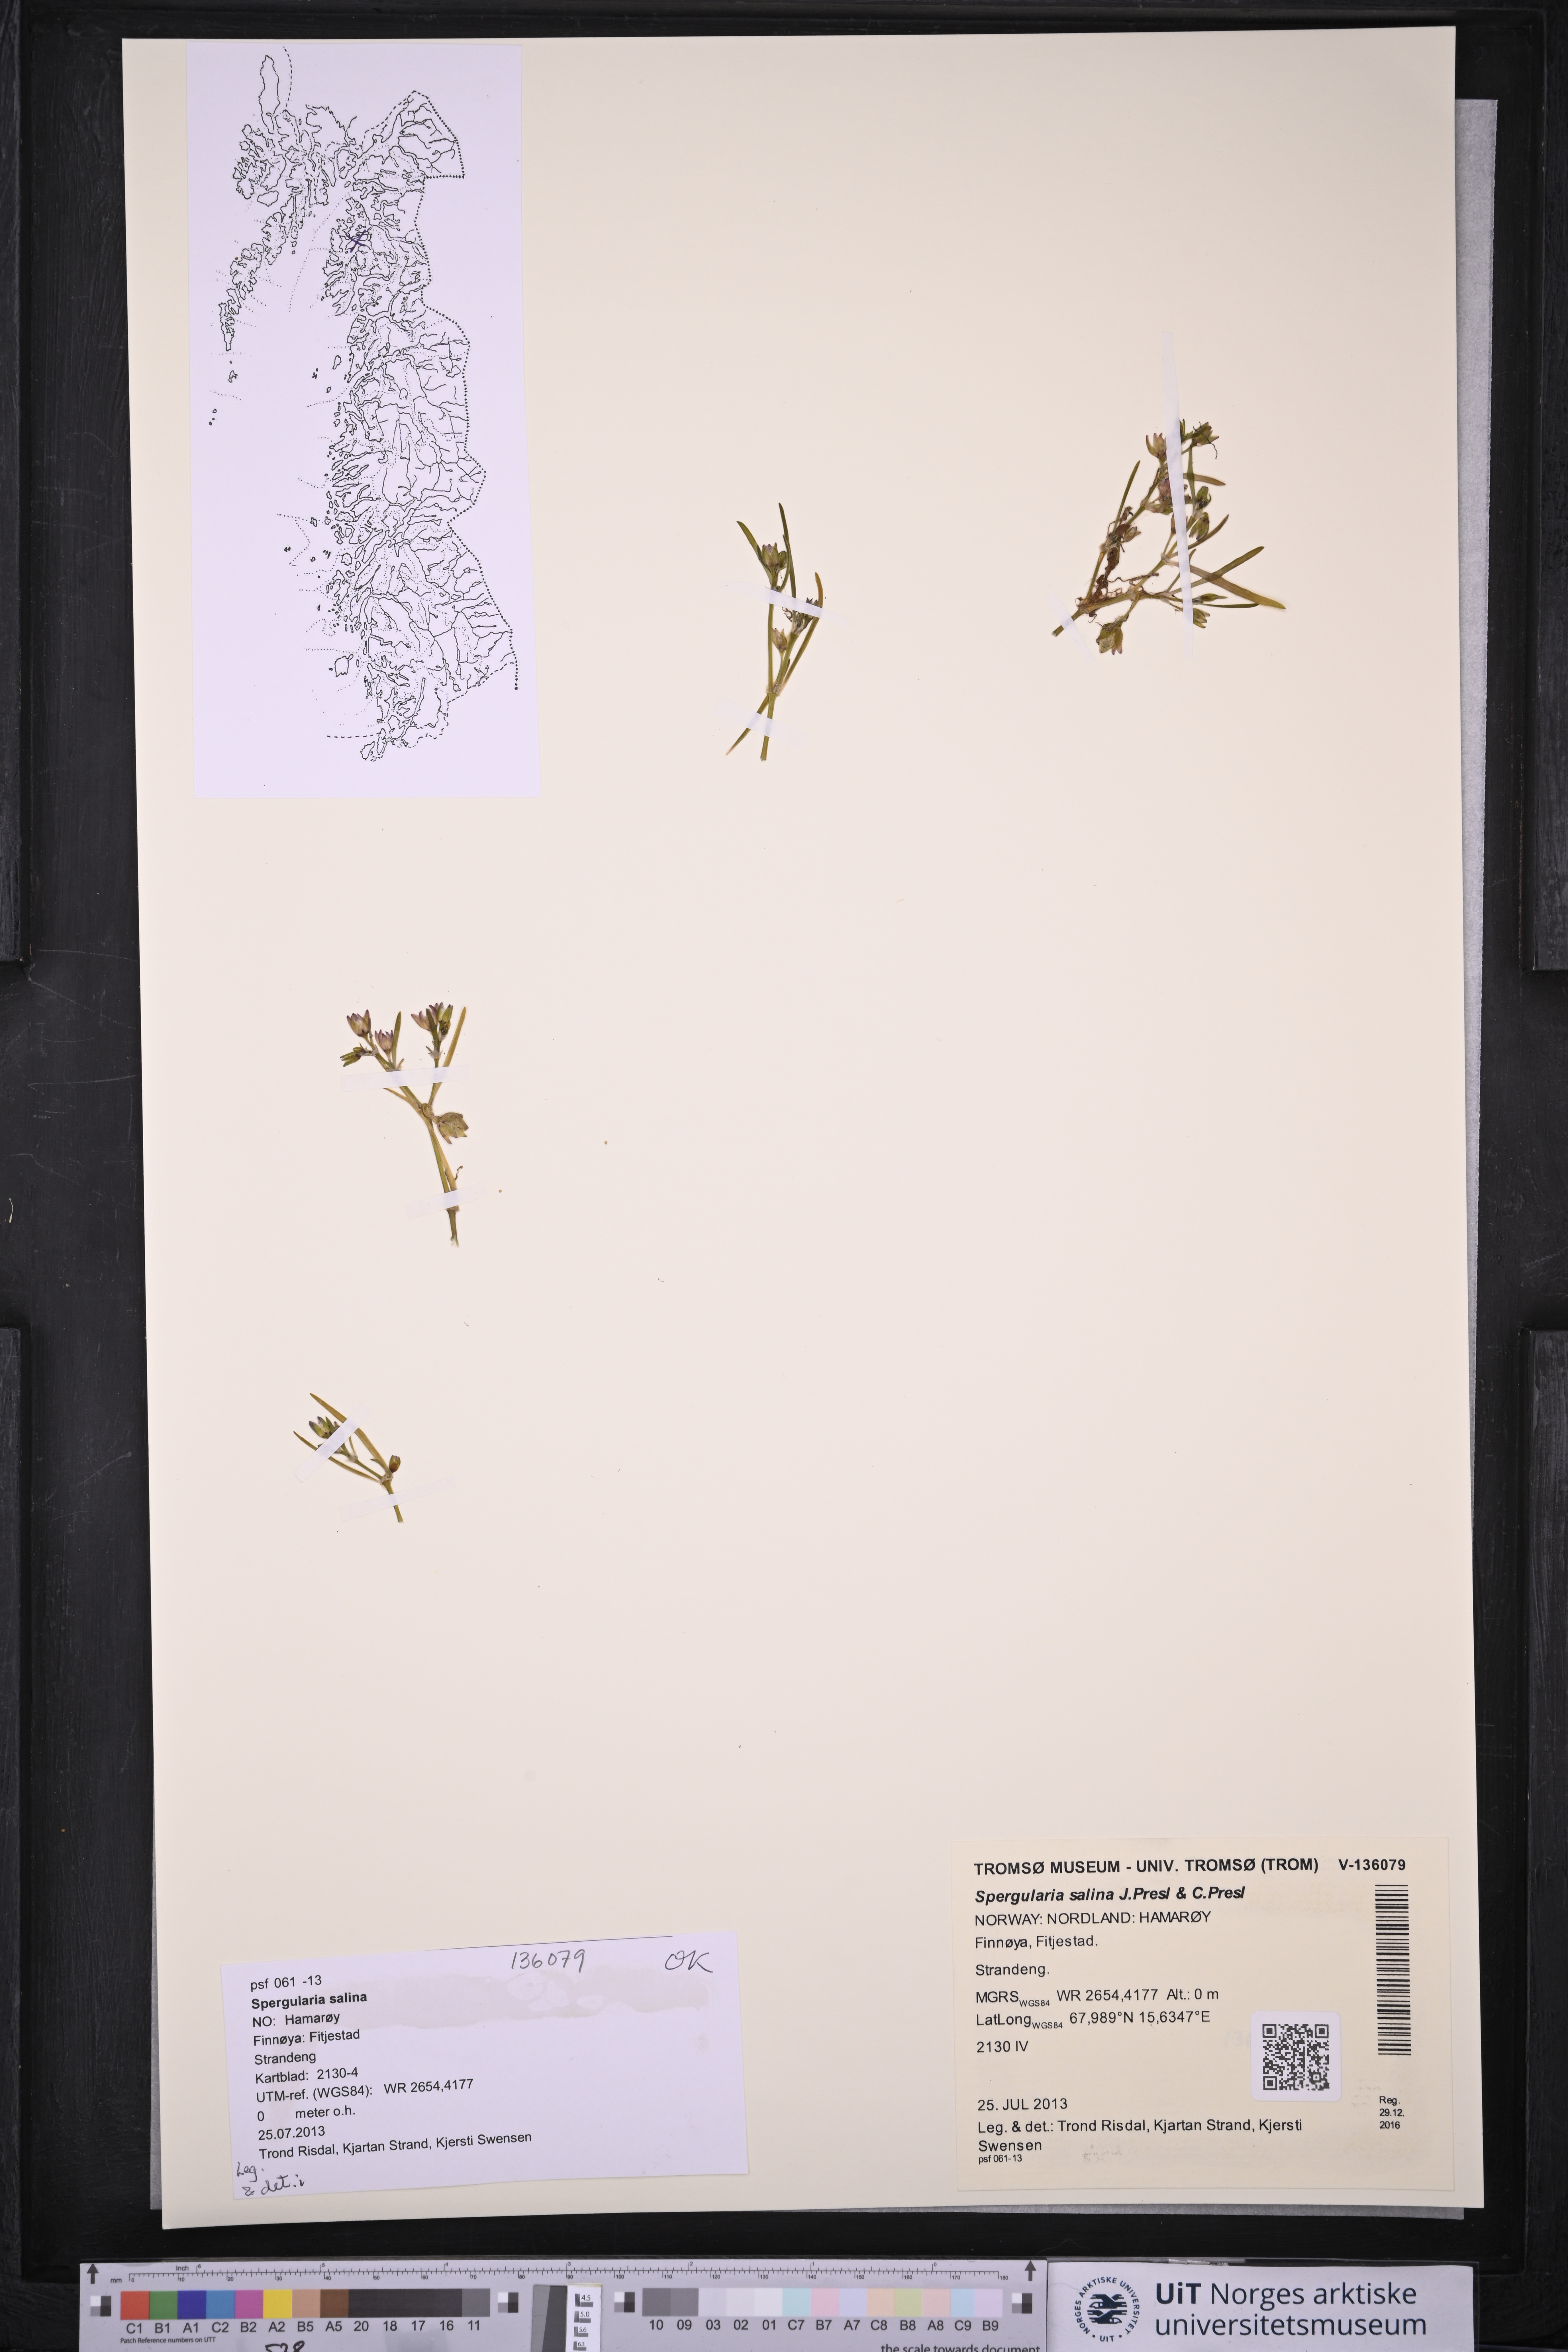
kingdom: Plantae
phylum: Tracheophyta
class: Magnoliopsida
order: Caryophyllales
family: Caryophyllaceae
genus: Spergularia
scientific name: Spergularia marina
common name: Lesser sea-spurrey
